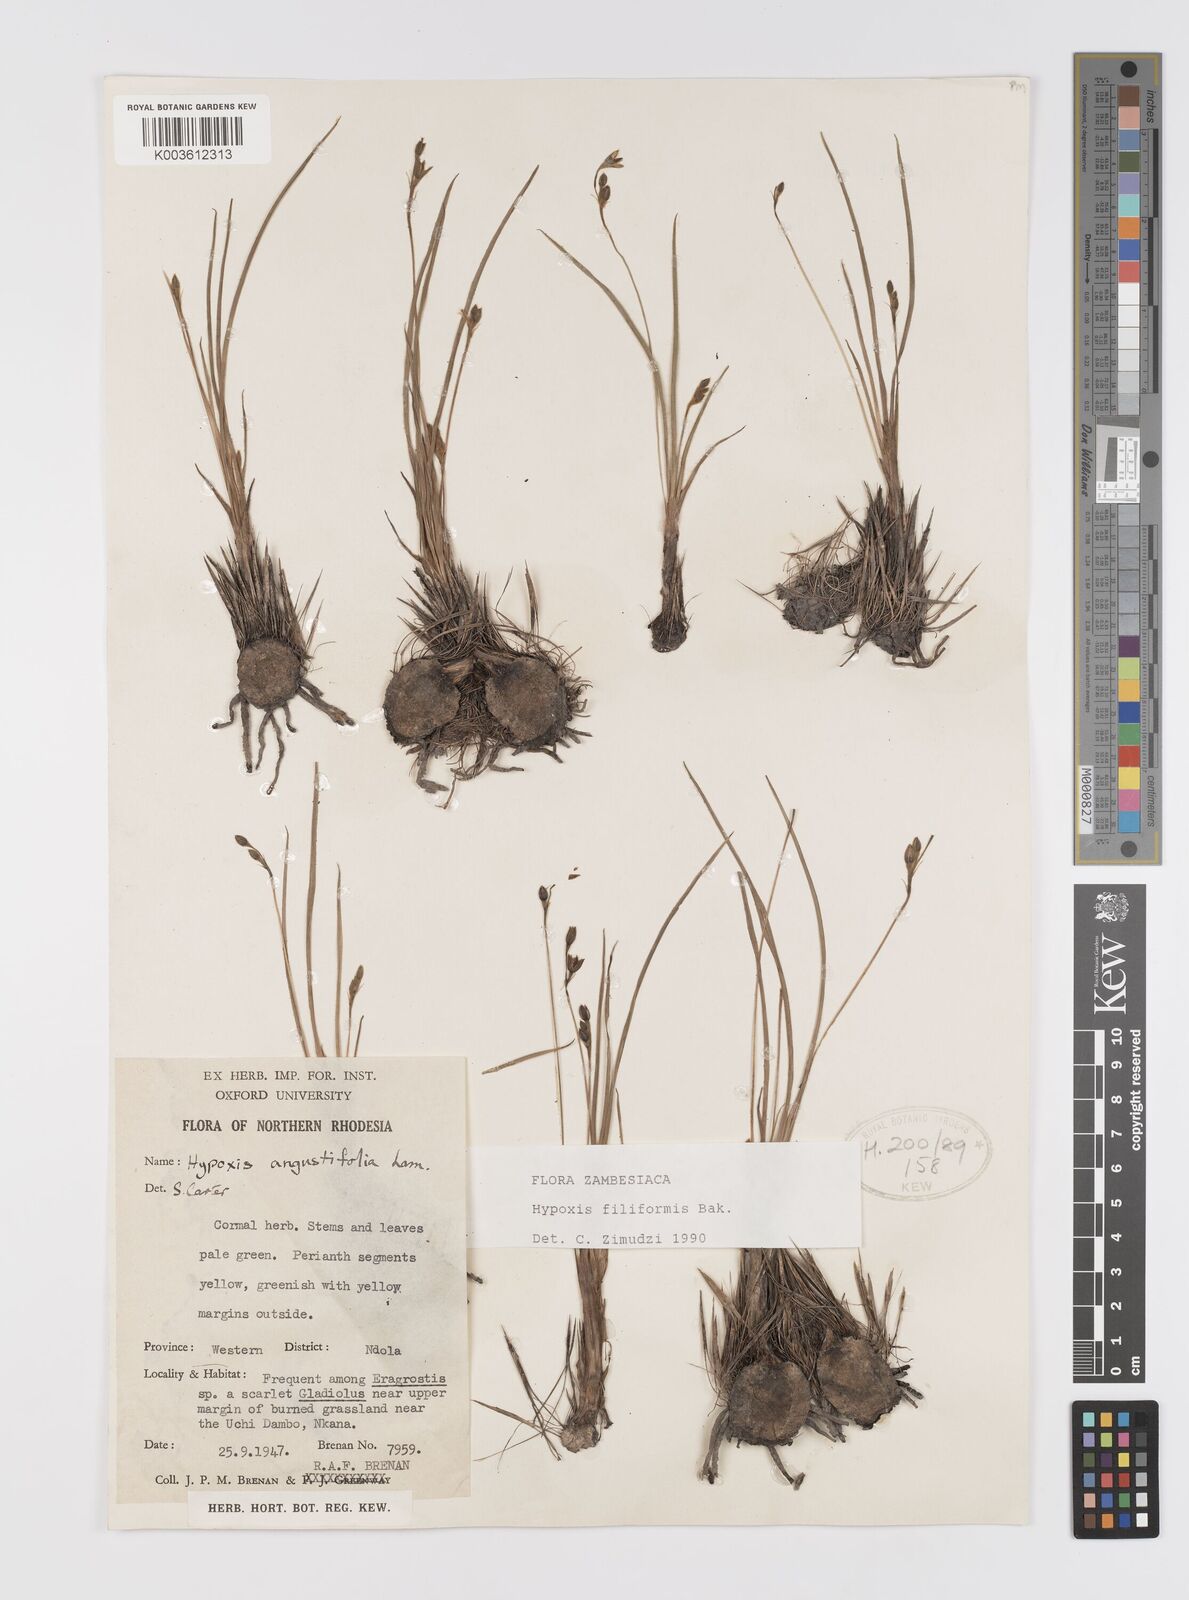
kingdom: Plantae
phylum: Tracheophyta
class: Liliopsida
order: Asparagales
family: Hypoxidaceae
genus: Hypoxis
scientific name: Hypoxis filiformis
